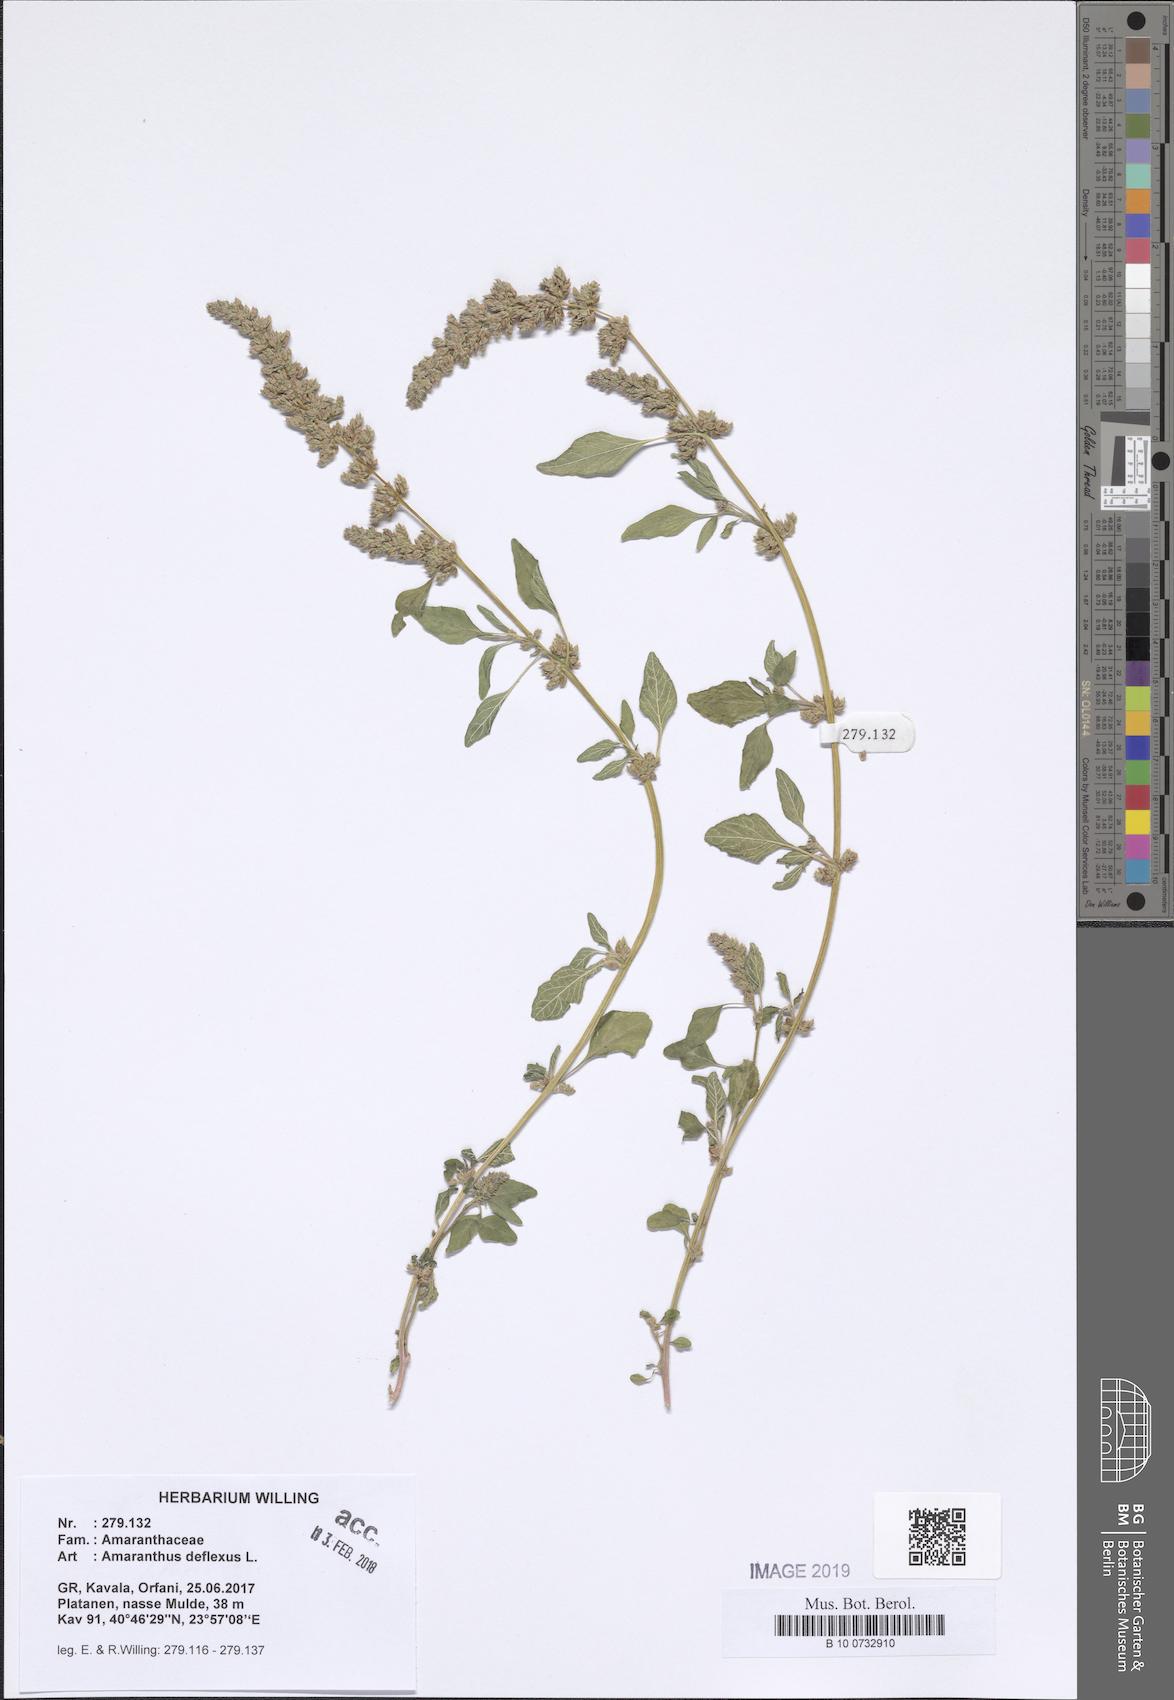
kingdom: Plantae
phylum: Tracheophyta
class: Magnoliopsida
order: Caryophyllales
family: Amaranthaceae
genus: Amaranthus
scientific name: Amaranthus deflexus
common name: Perennial pigweed
